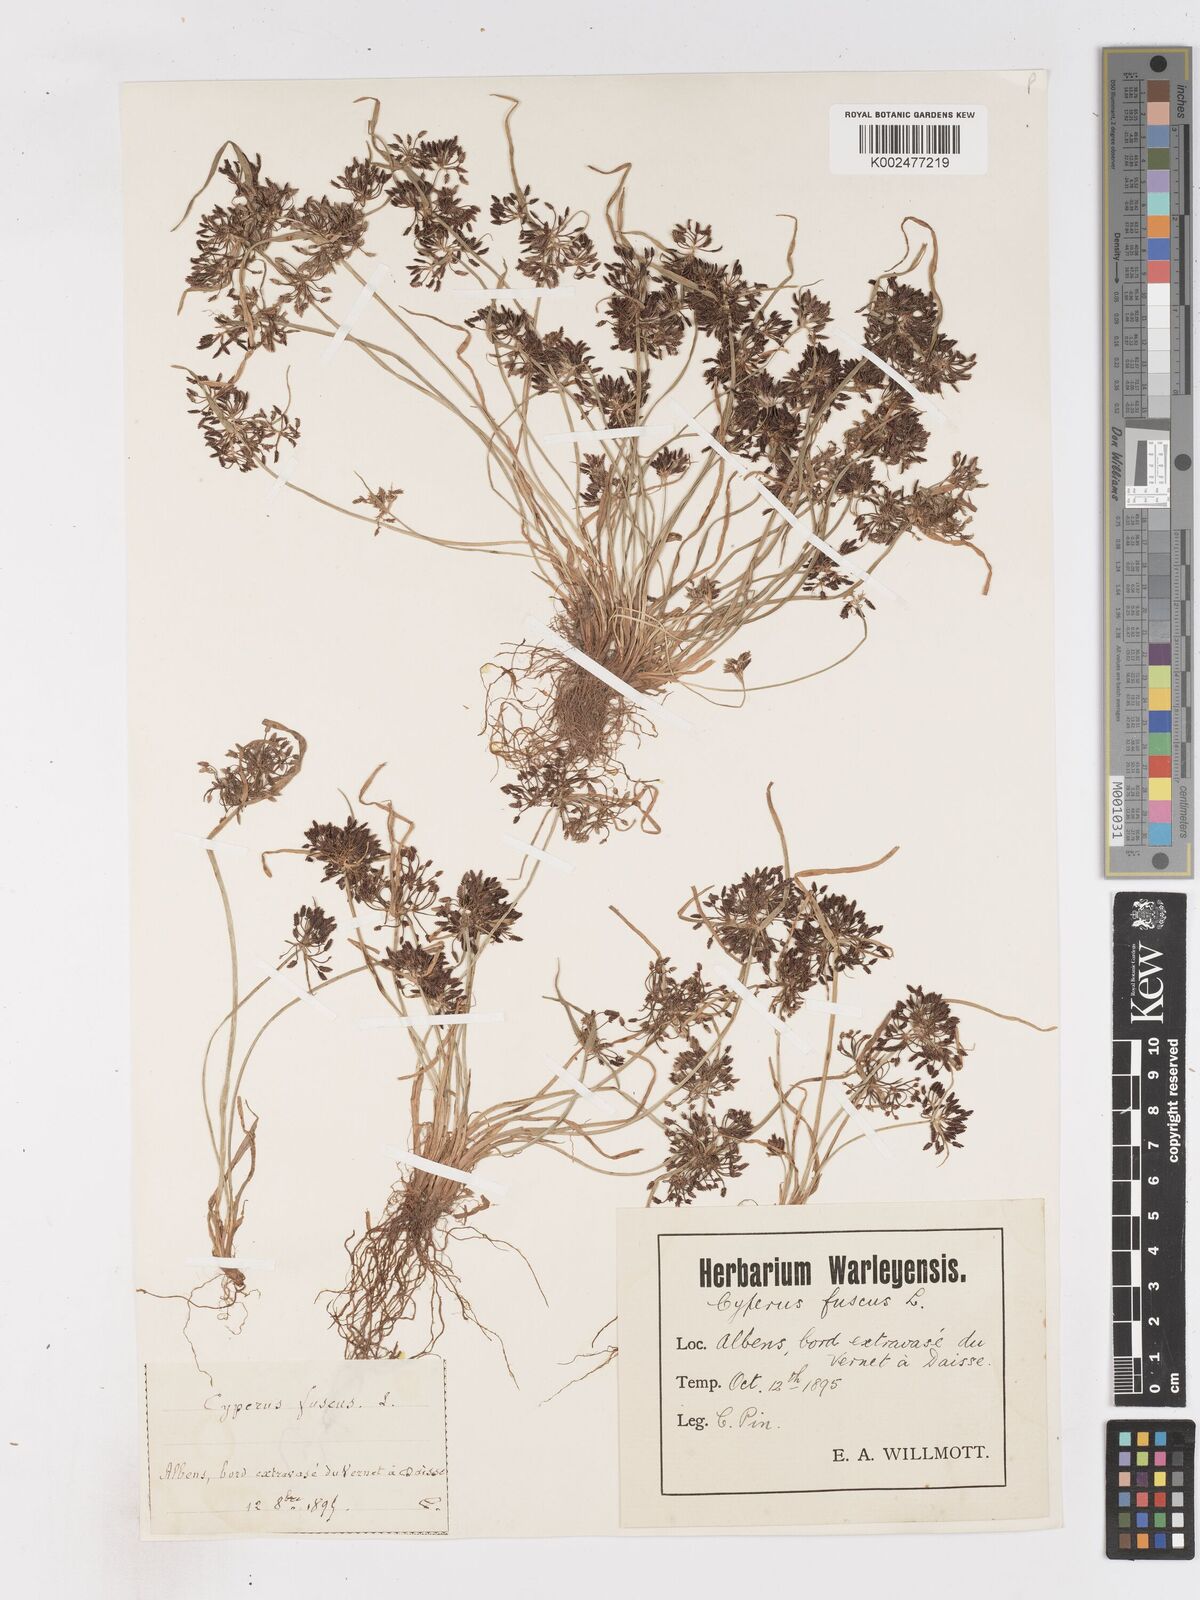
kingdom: Plantae
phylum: Tracheophyta
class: Liliopsida
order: Poales
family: Cyperaceae
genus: Cyperus
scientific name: Cyperus fuscus
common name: Brown galingale
